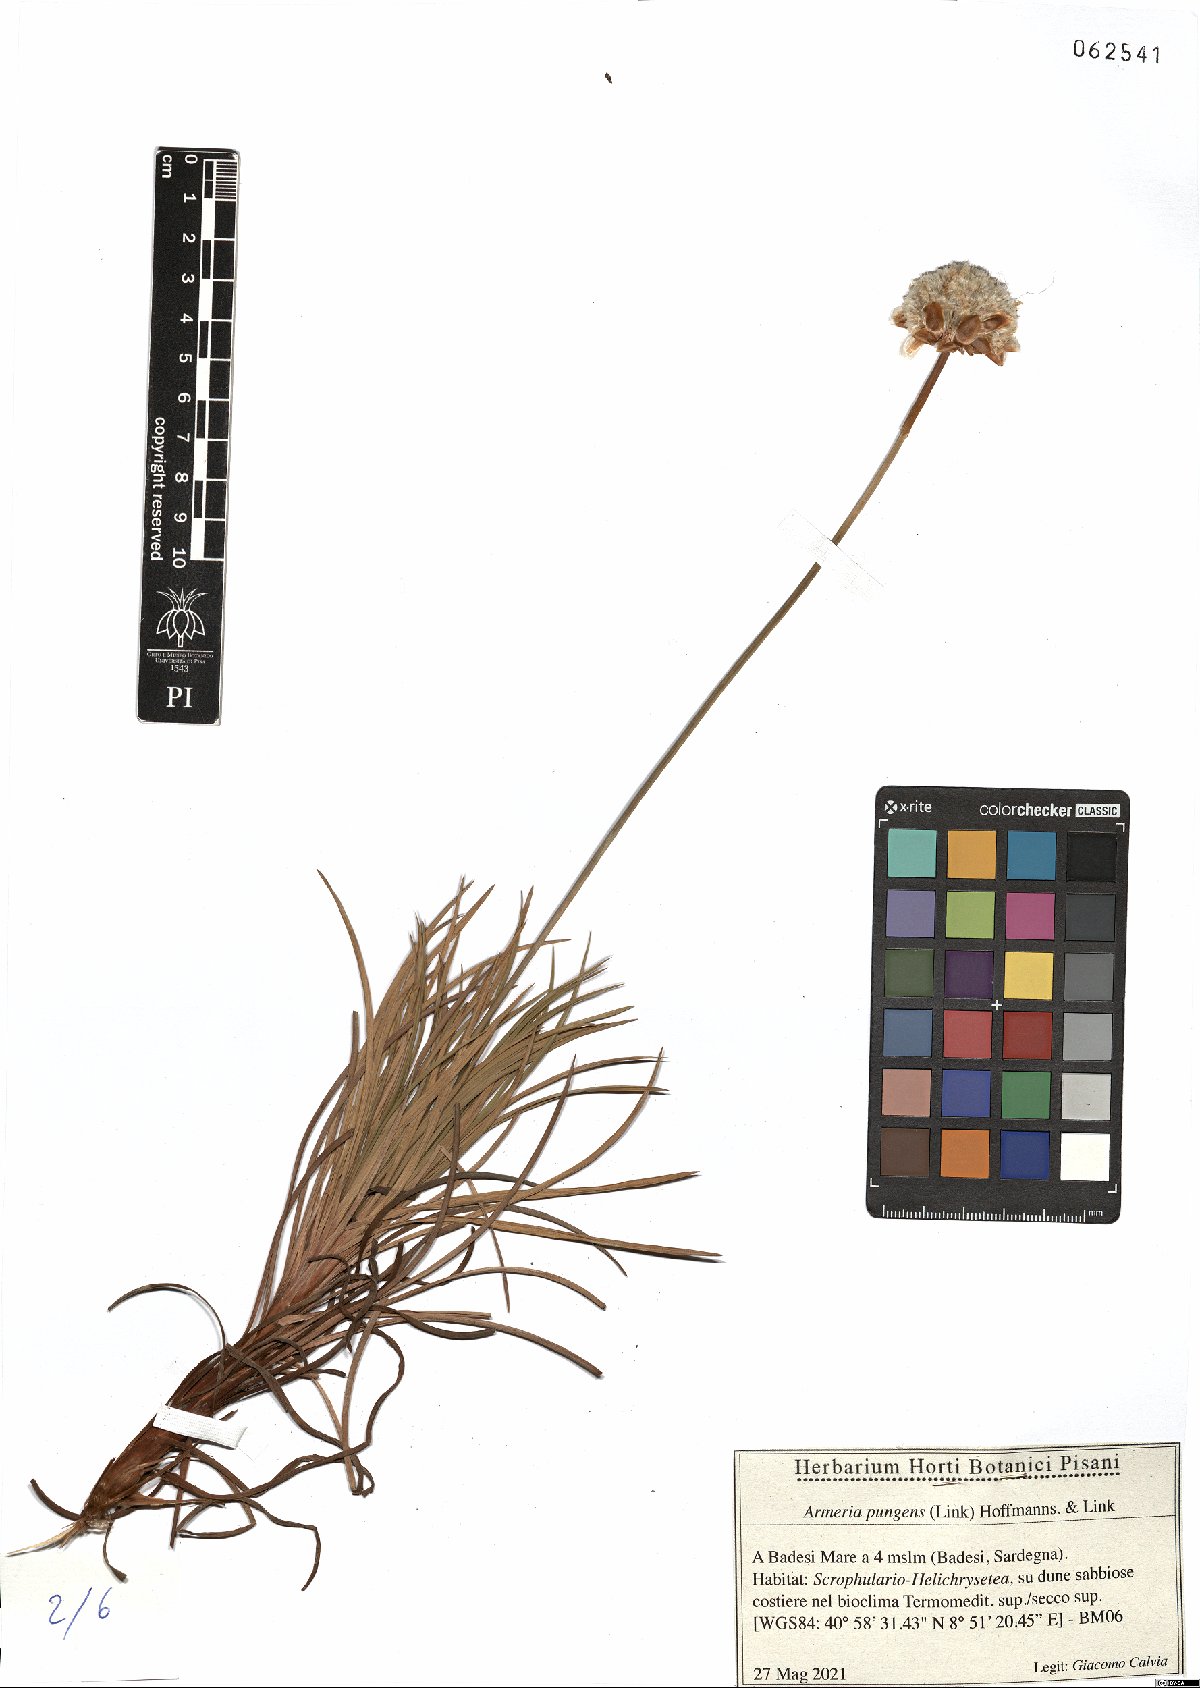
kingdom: Plantae
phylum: Tracheophyta
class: Magnoliopsida
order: Caryophyllales
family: Plumbaginaceae
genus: Armeria
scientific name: Armeria pungens
